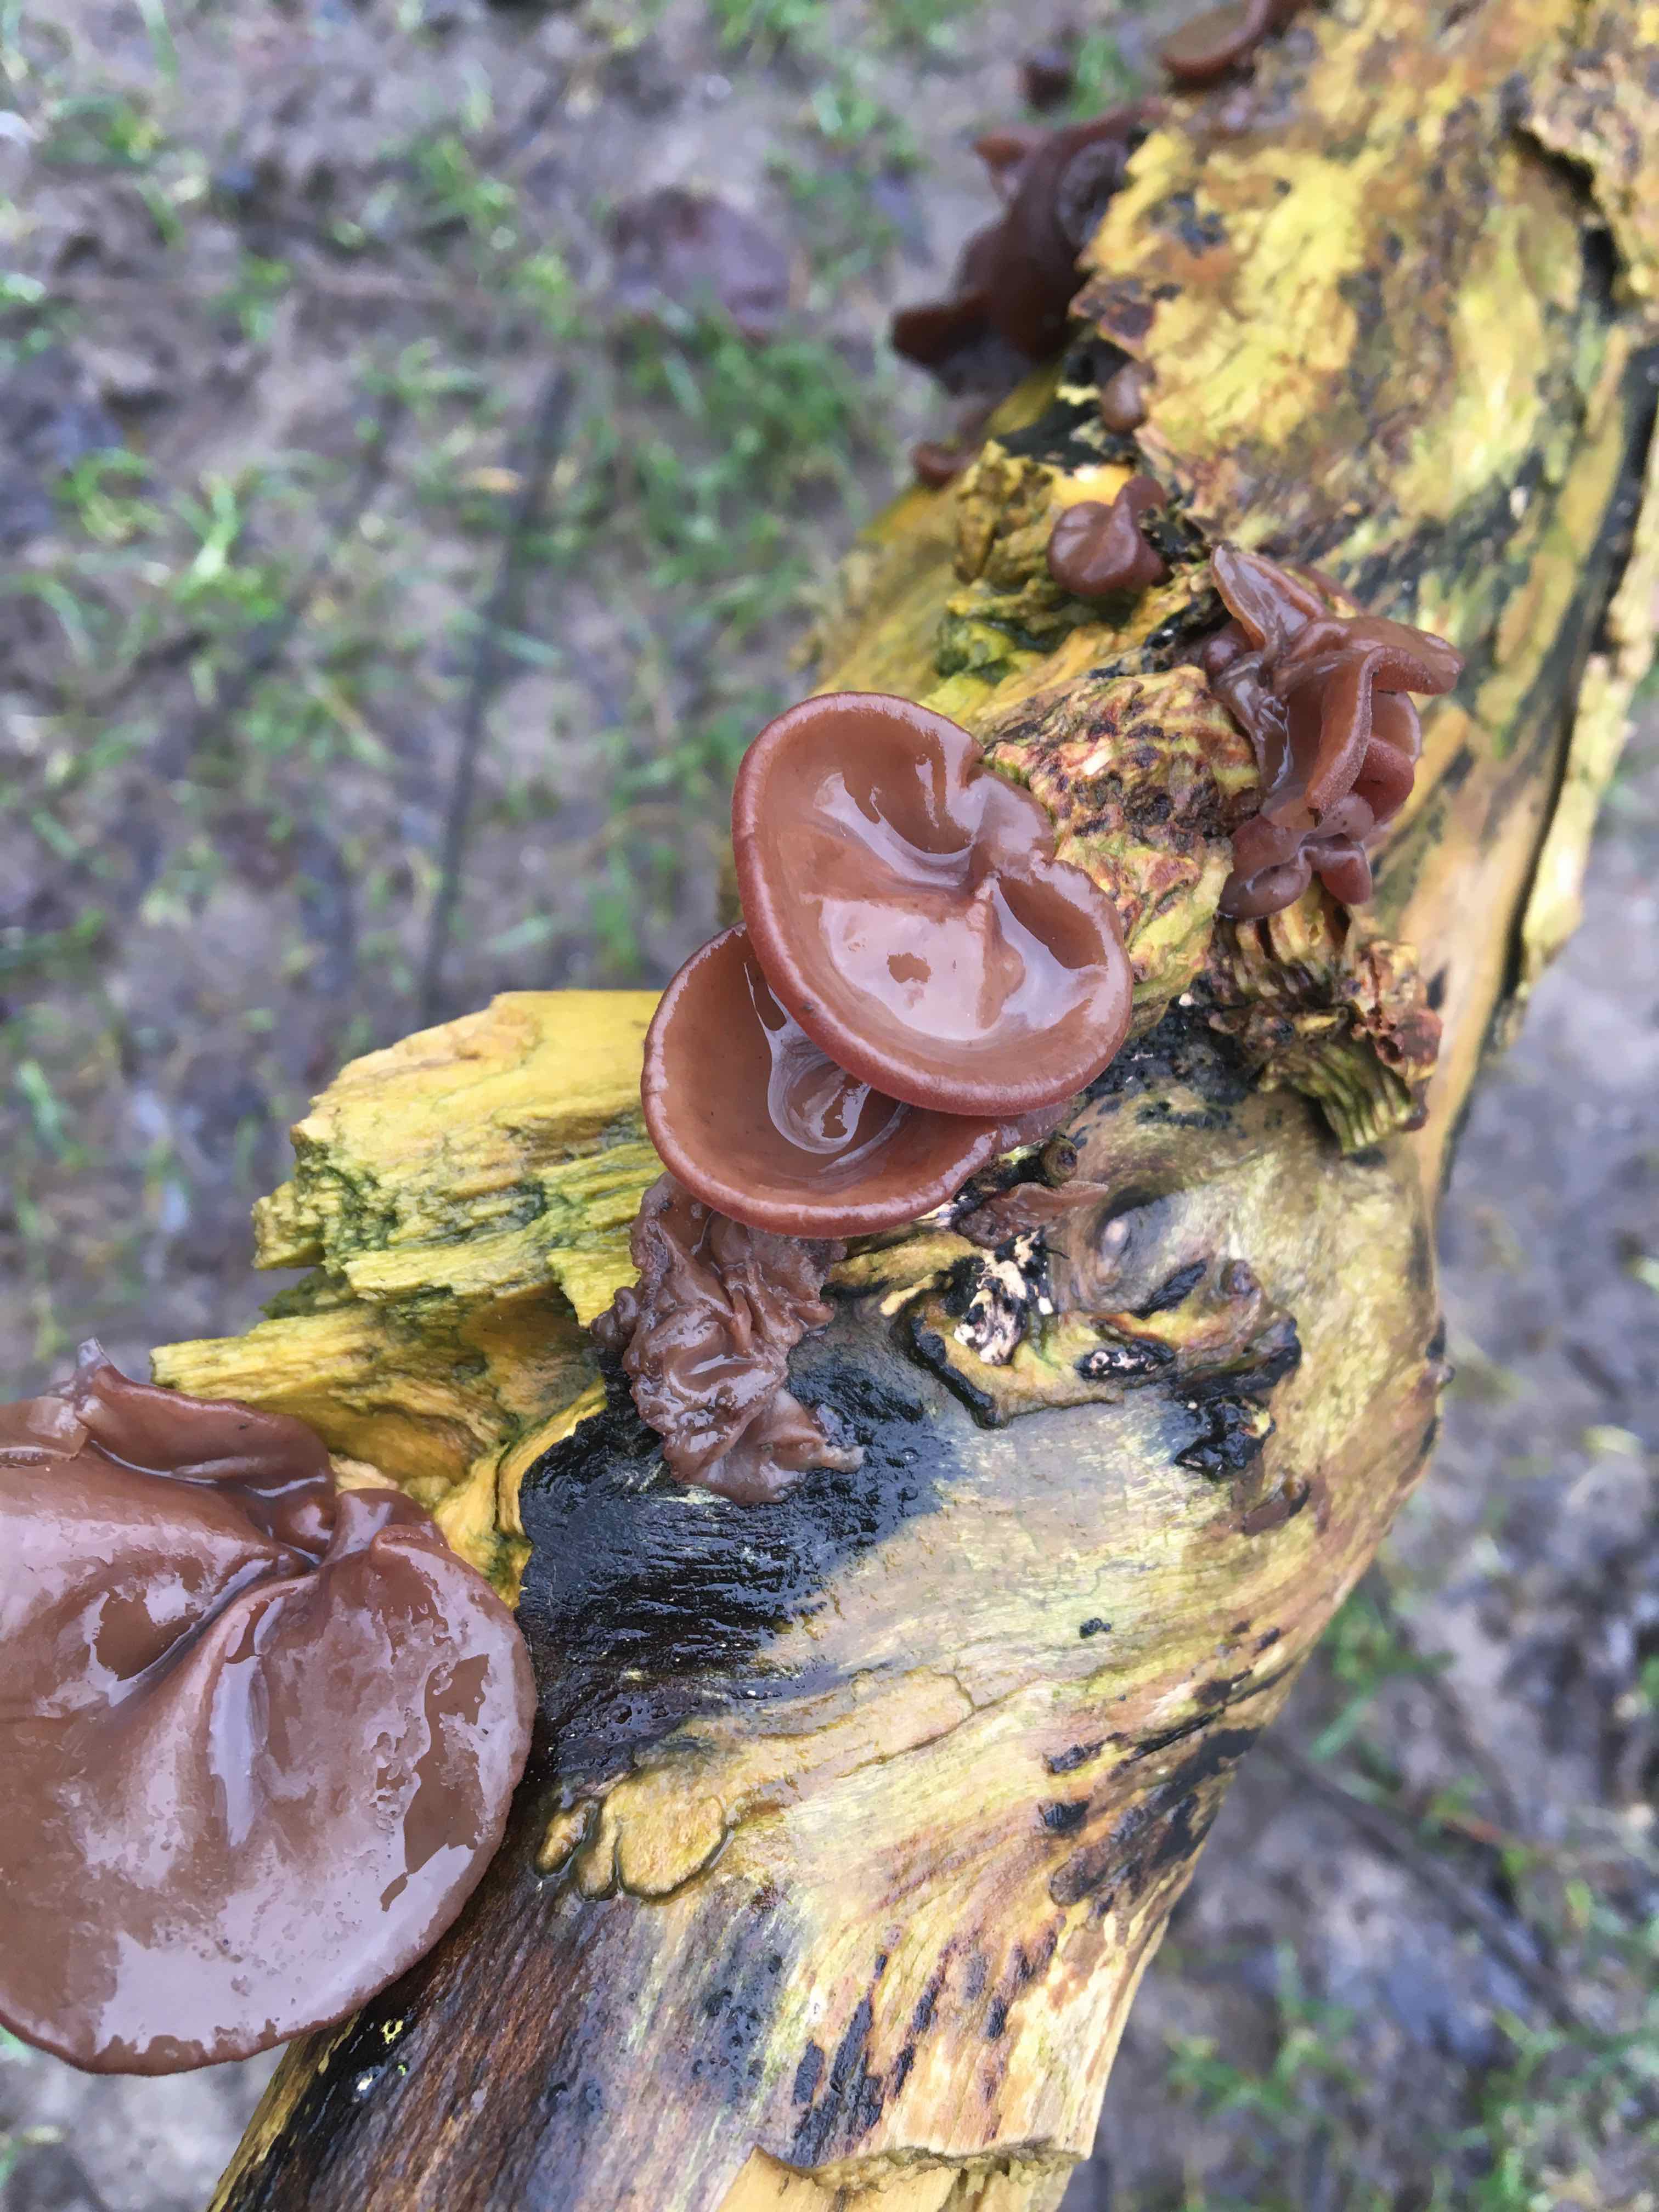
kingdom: Fungi
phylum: Basidiomycota
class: Agaricomycetes
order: Auriculariales
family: Auriculariaceae
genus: Auricularia
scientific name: Auricularia auricula-judae
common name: almindelig judasøre
